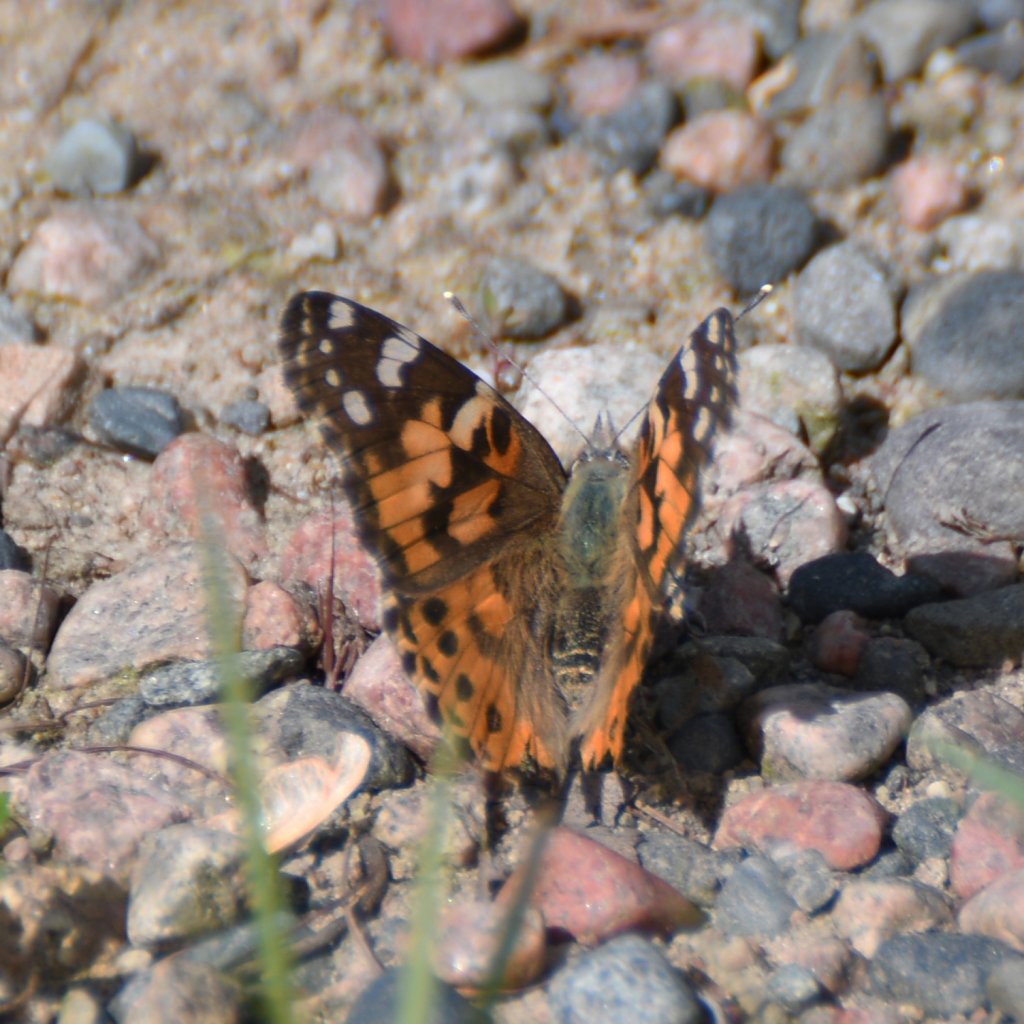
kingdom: Animalia
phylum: Arthropoda
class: Insecta
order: Lepidoptera
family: Nymphalidae
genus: Vanessa
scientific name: Vanessa cardui
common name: Painted Lady
